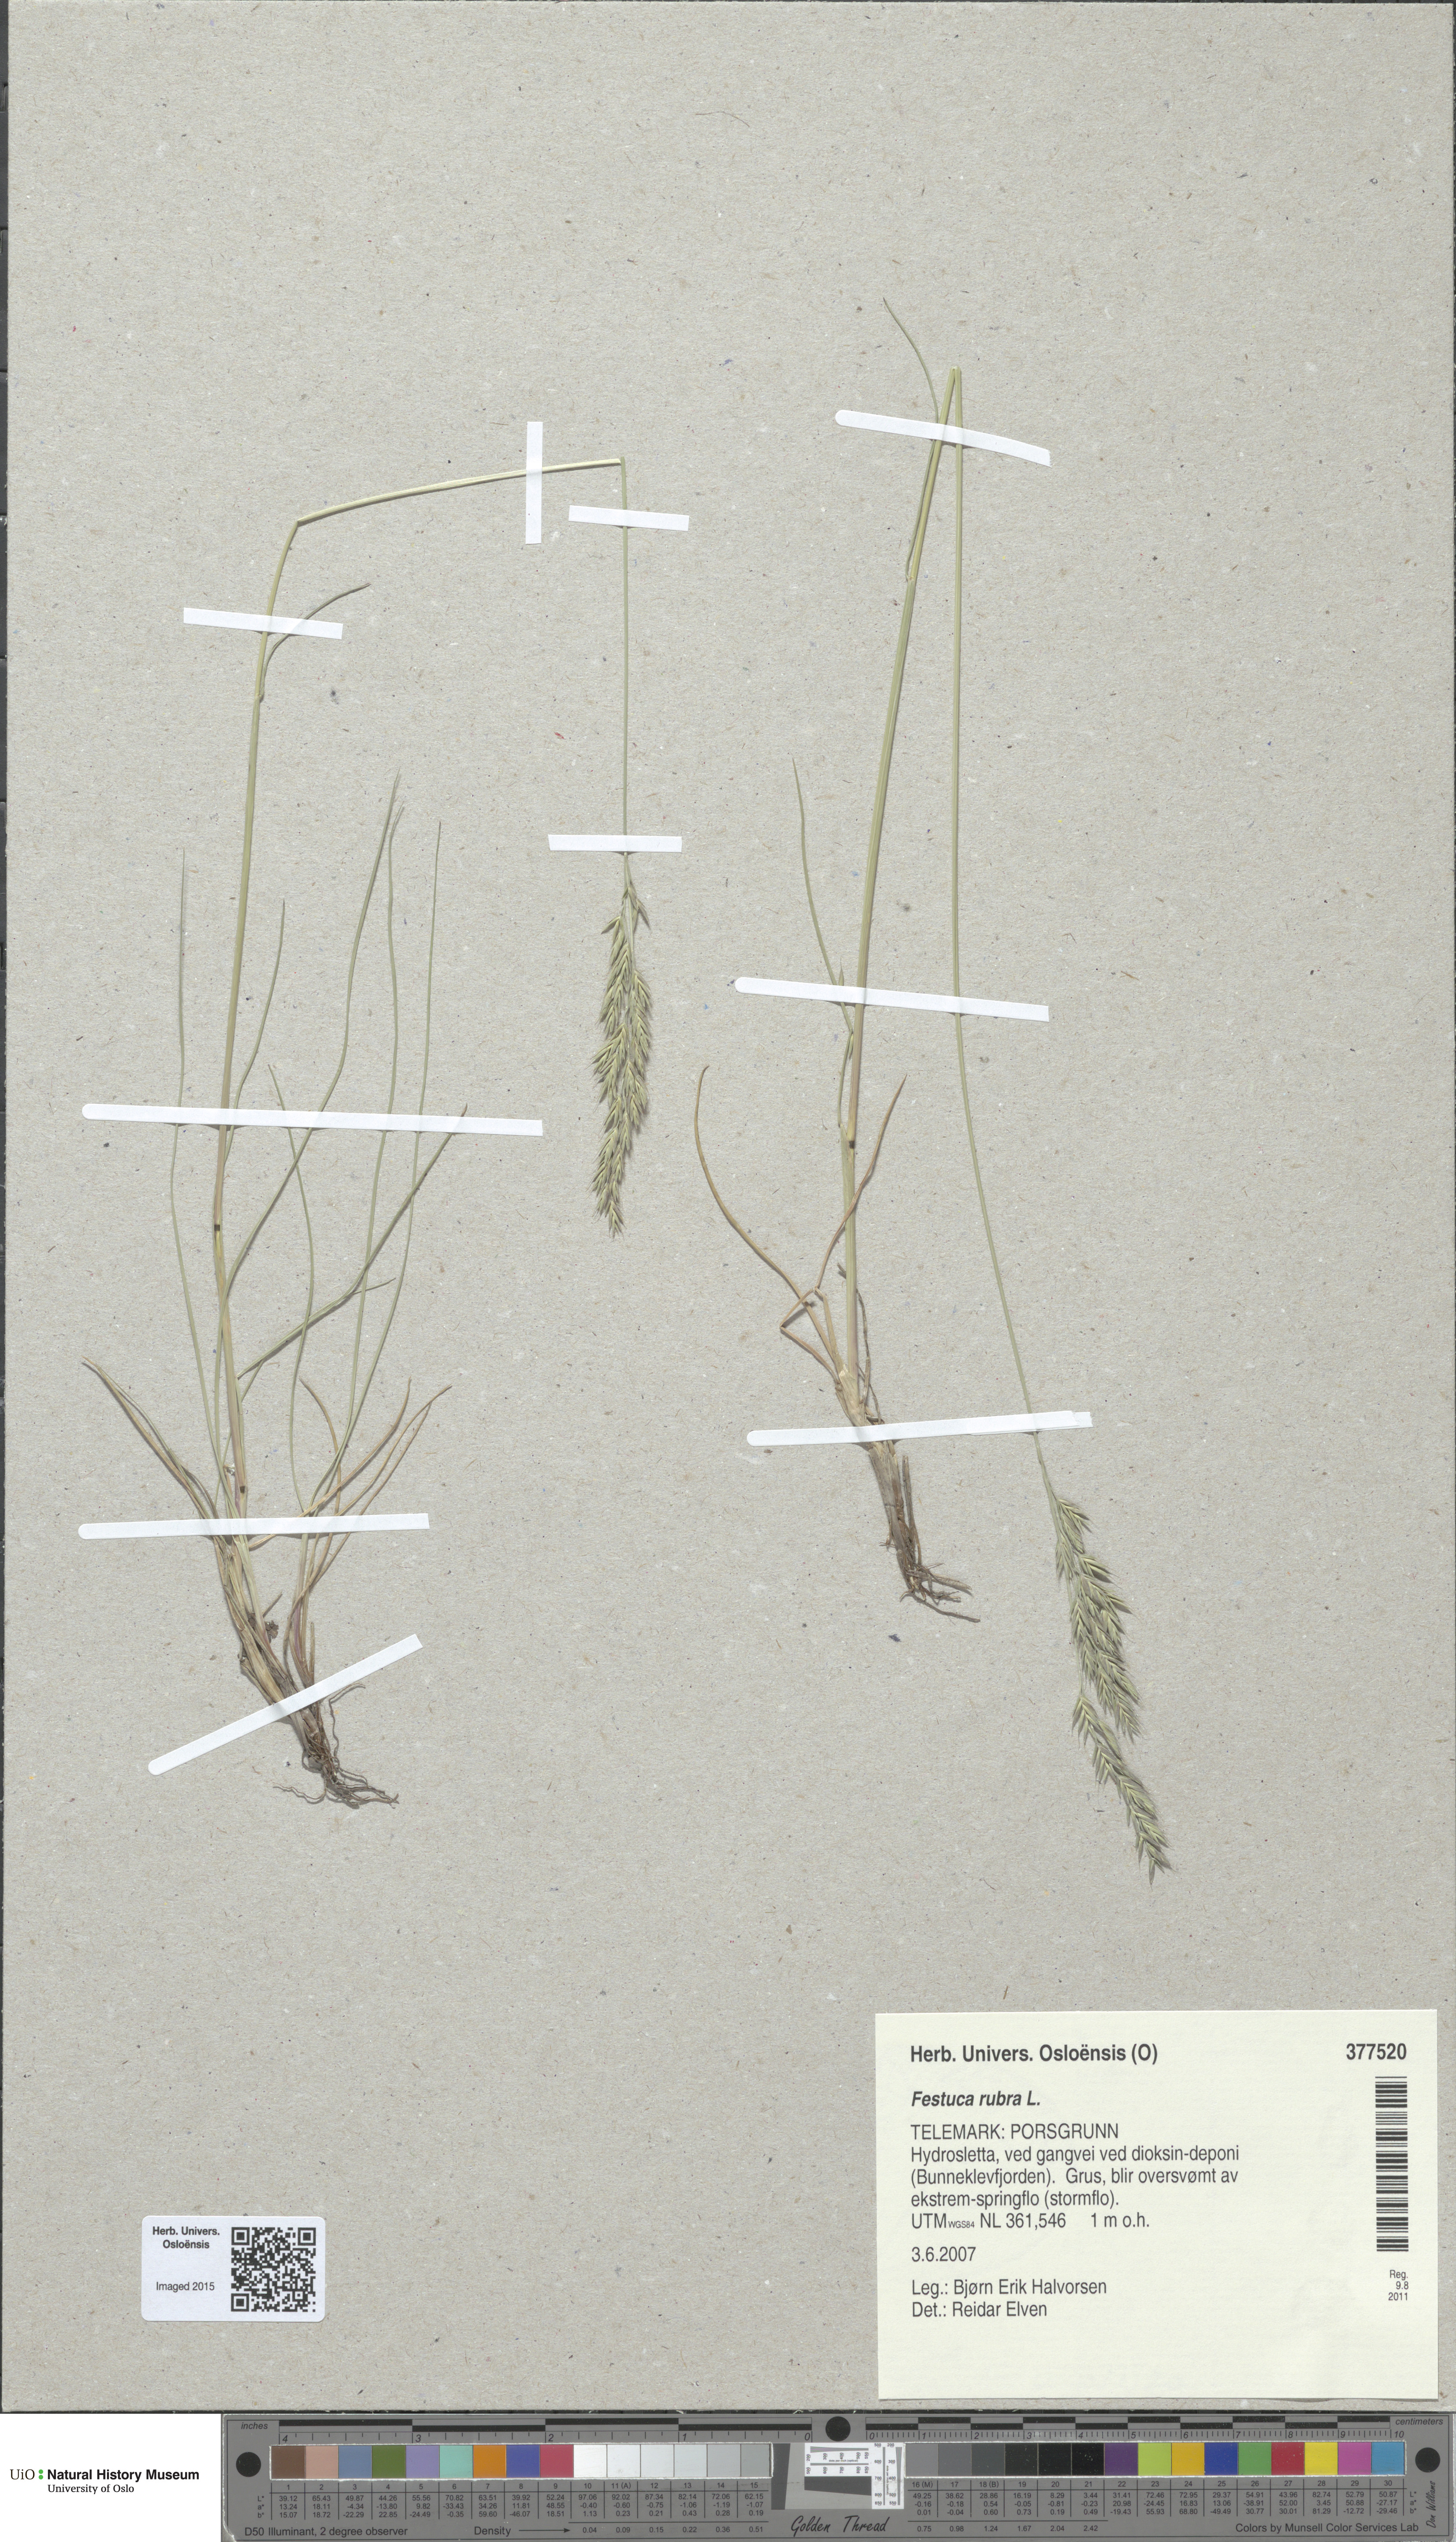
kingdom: Plantae
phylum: Tracheophyta
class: Liliopsida
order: Poales
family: Poaceae
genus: Festuca
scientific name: Festuca rubra
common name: Red fescue
